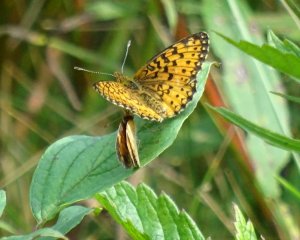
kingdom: Animalia
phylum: Arthropoda
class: Insecta
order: Lepidoptera
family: Nymphalidae
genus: Boloria
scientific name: Boloria selene
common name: Silver-bordered Fritillary
